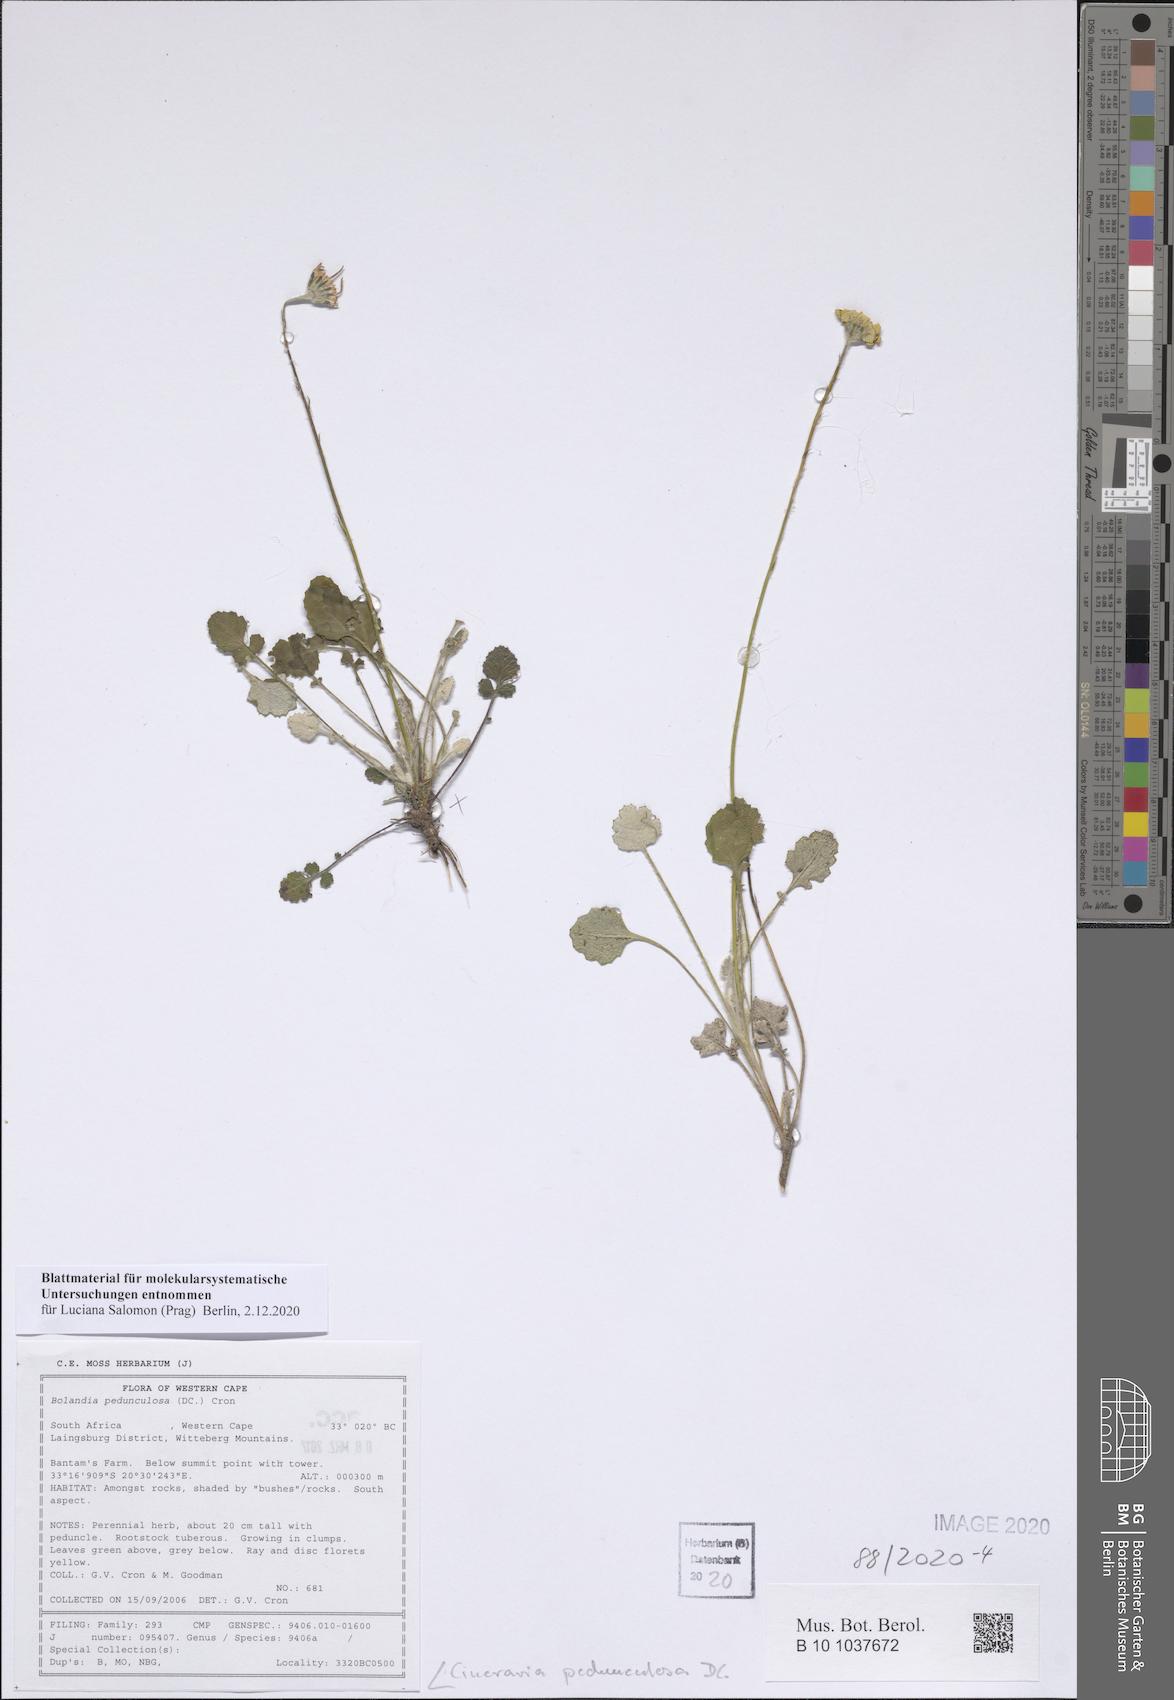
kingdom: Plantae
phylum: Tracheophyta
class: Magnoliopsida
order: Asterales
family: Asteraceae
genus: Bolandia
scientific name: Bolandia pedunculosa
